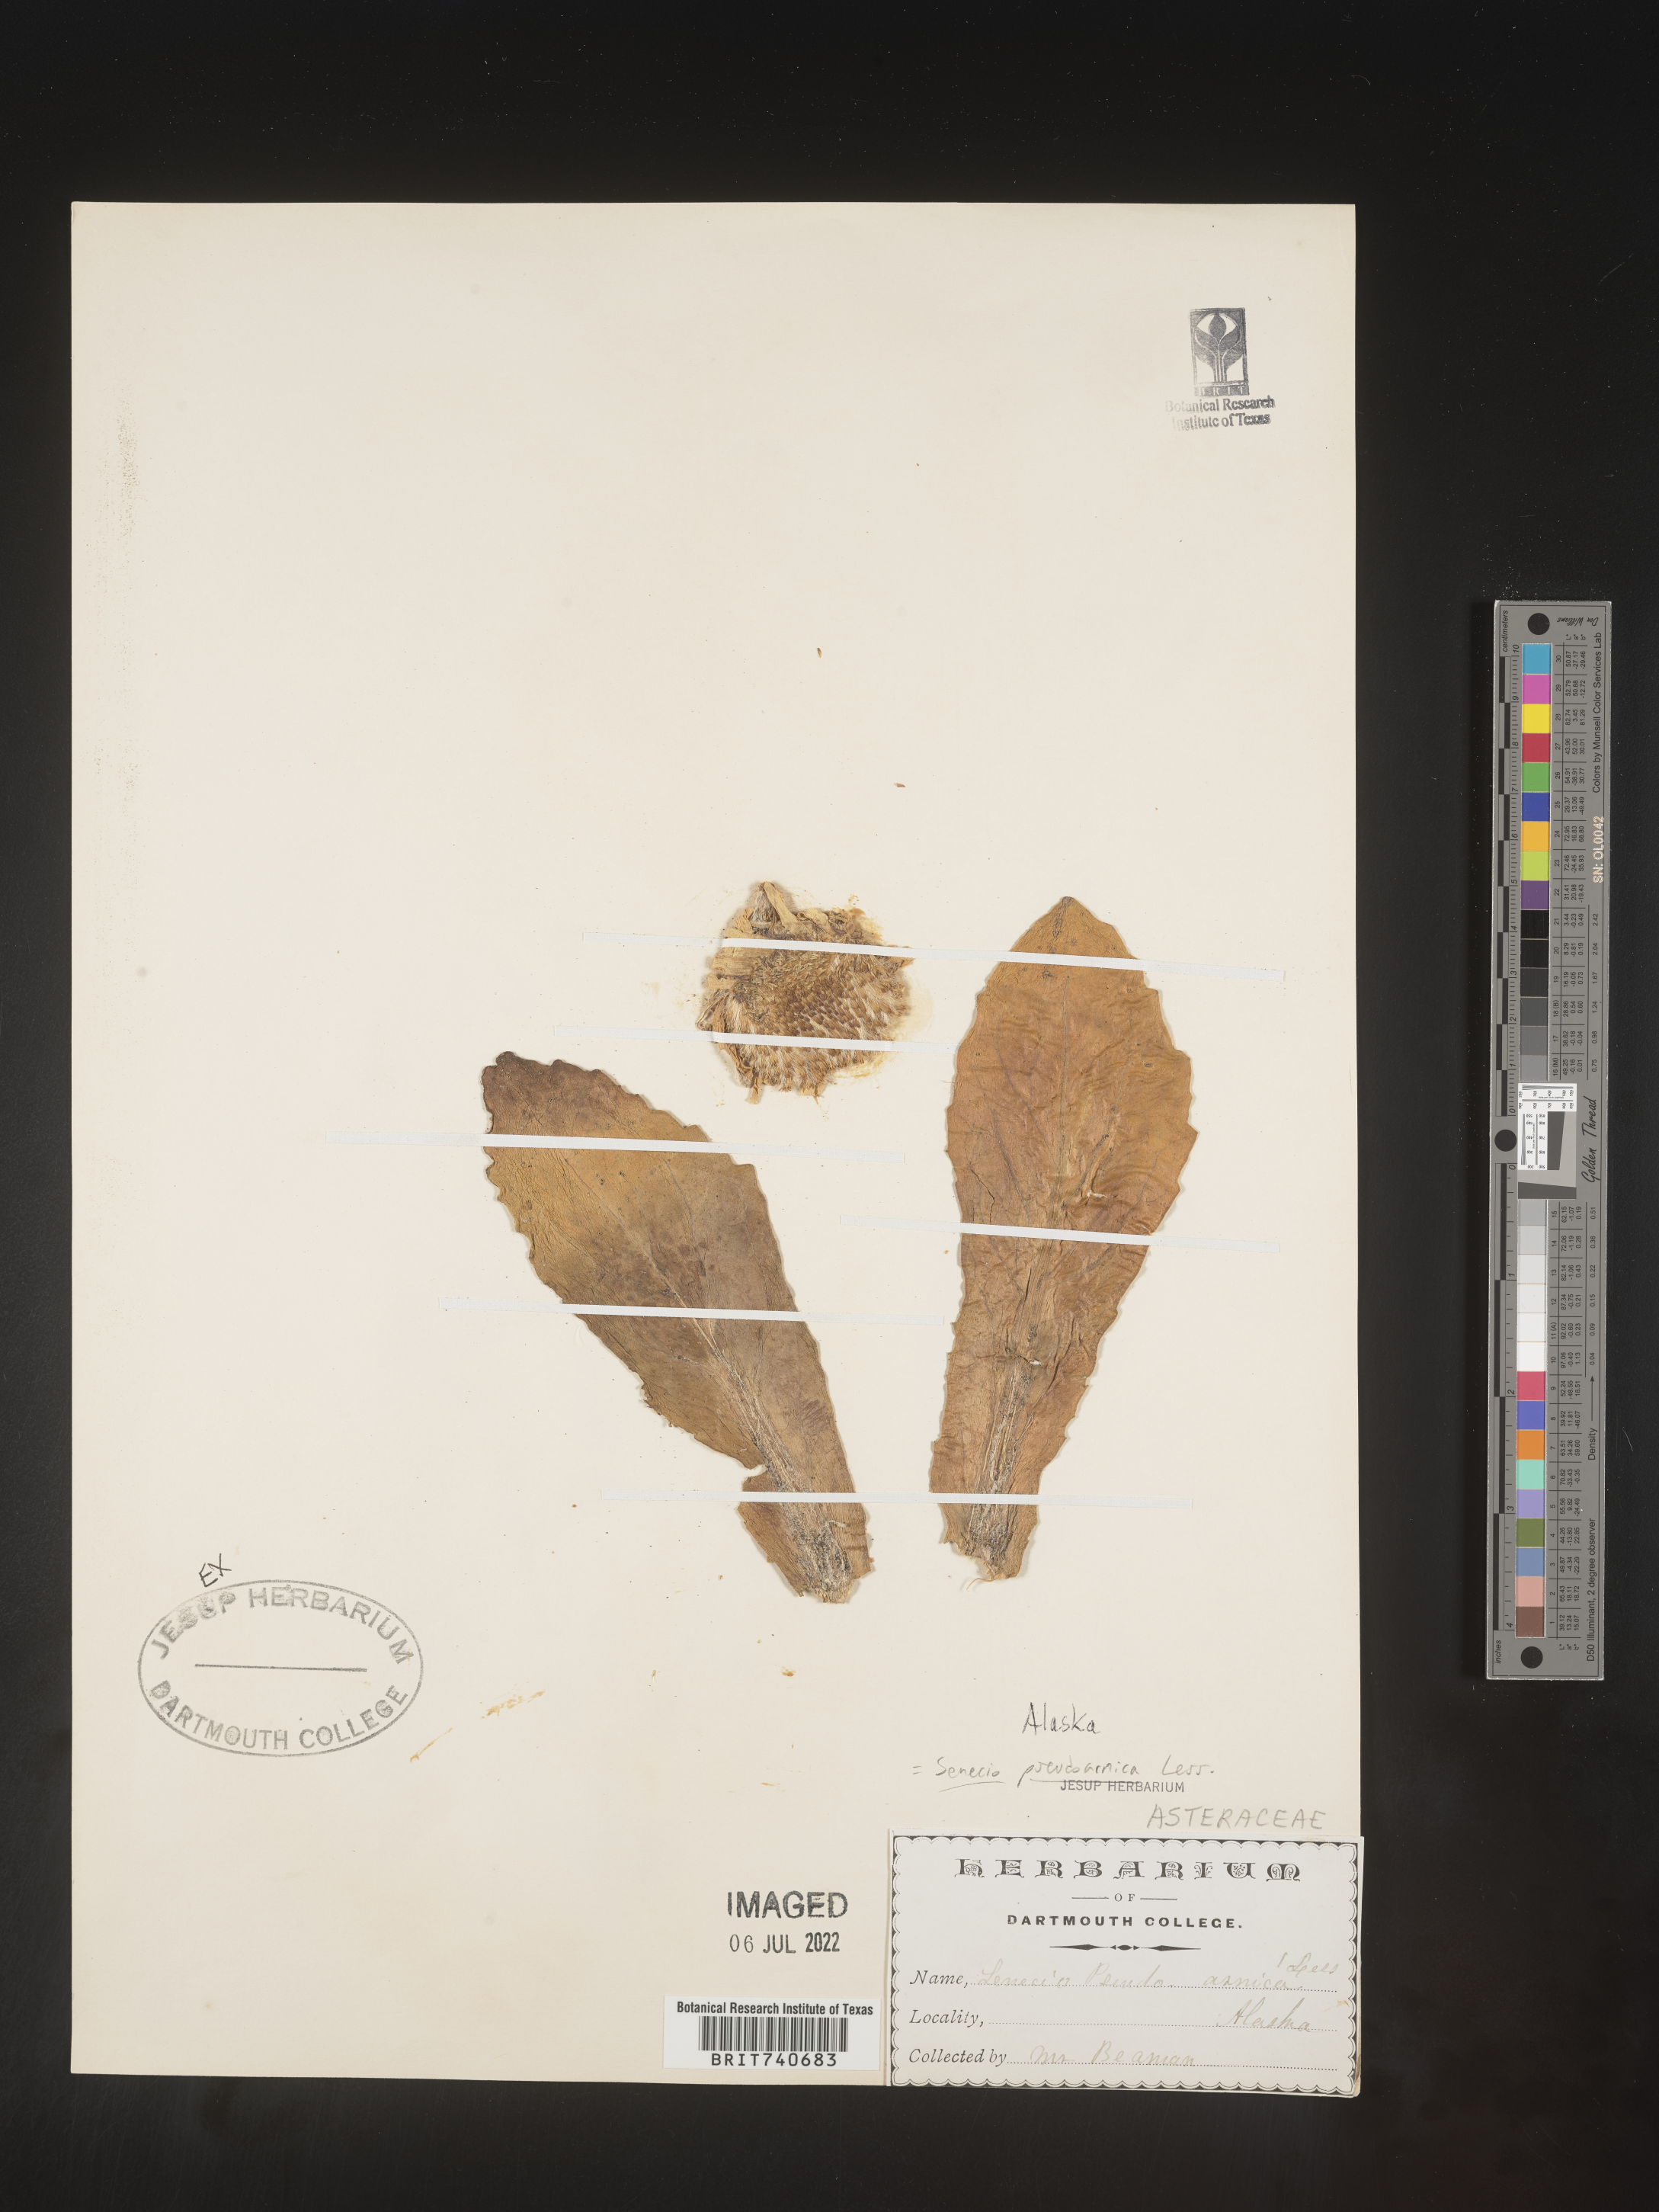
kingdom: Plantae
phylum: Tracheophyta
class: Magnoliopsida
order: Asterales
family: Asteraceae
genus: Jacobaea
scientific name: Jacobaea pseudoarnica
